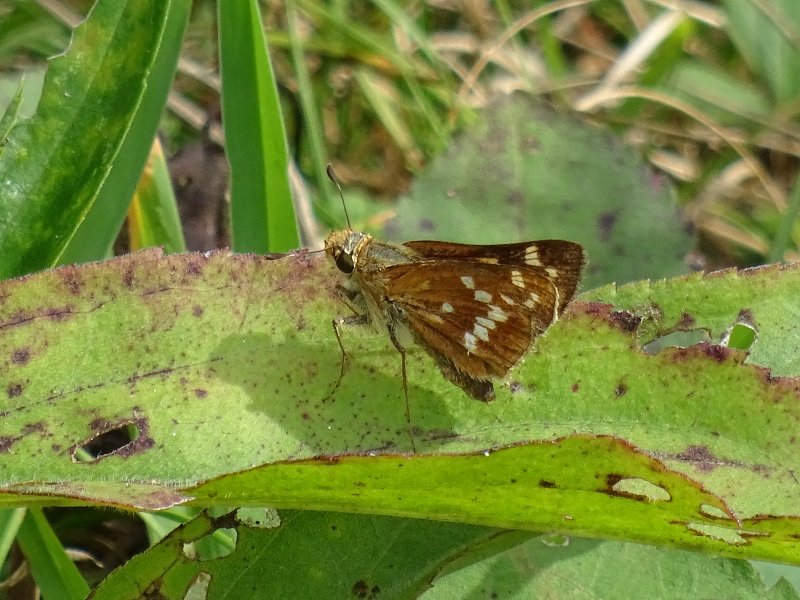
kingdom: Animalia
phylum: Arthropoda
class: Insecta
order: Lepidoptera
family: Hesperiidae
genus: Hesperia
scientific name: Hesperia leonardus
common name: Leonard's Skipper
